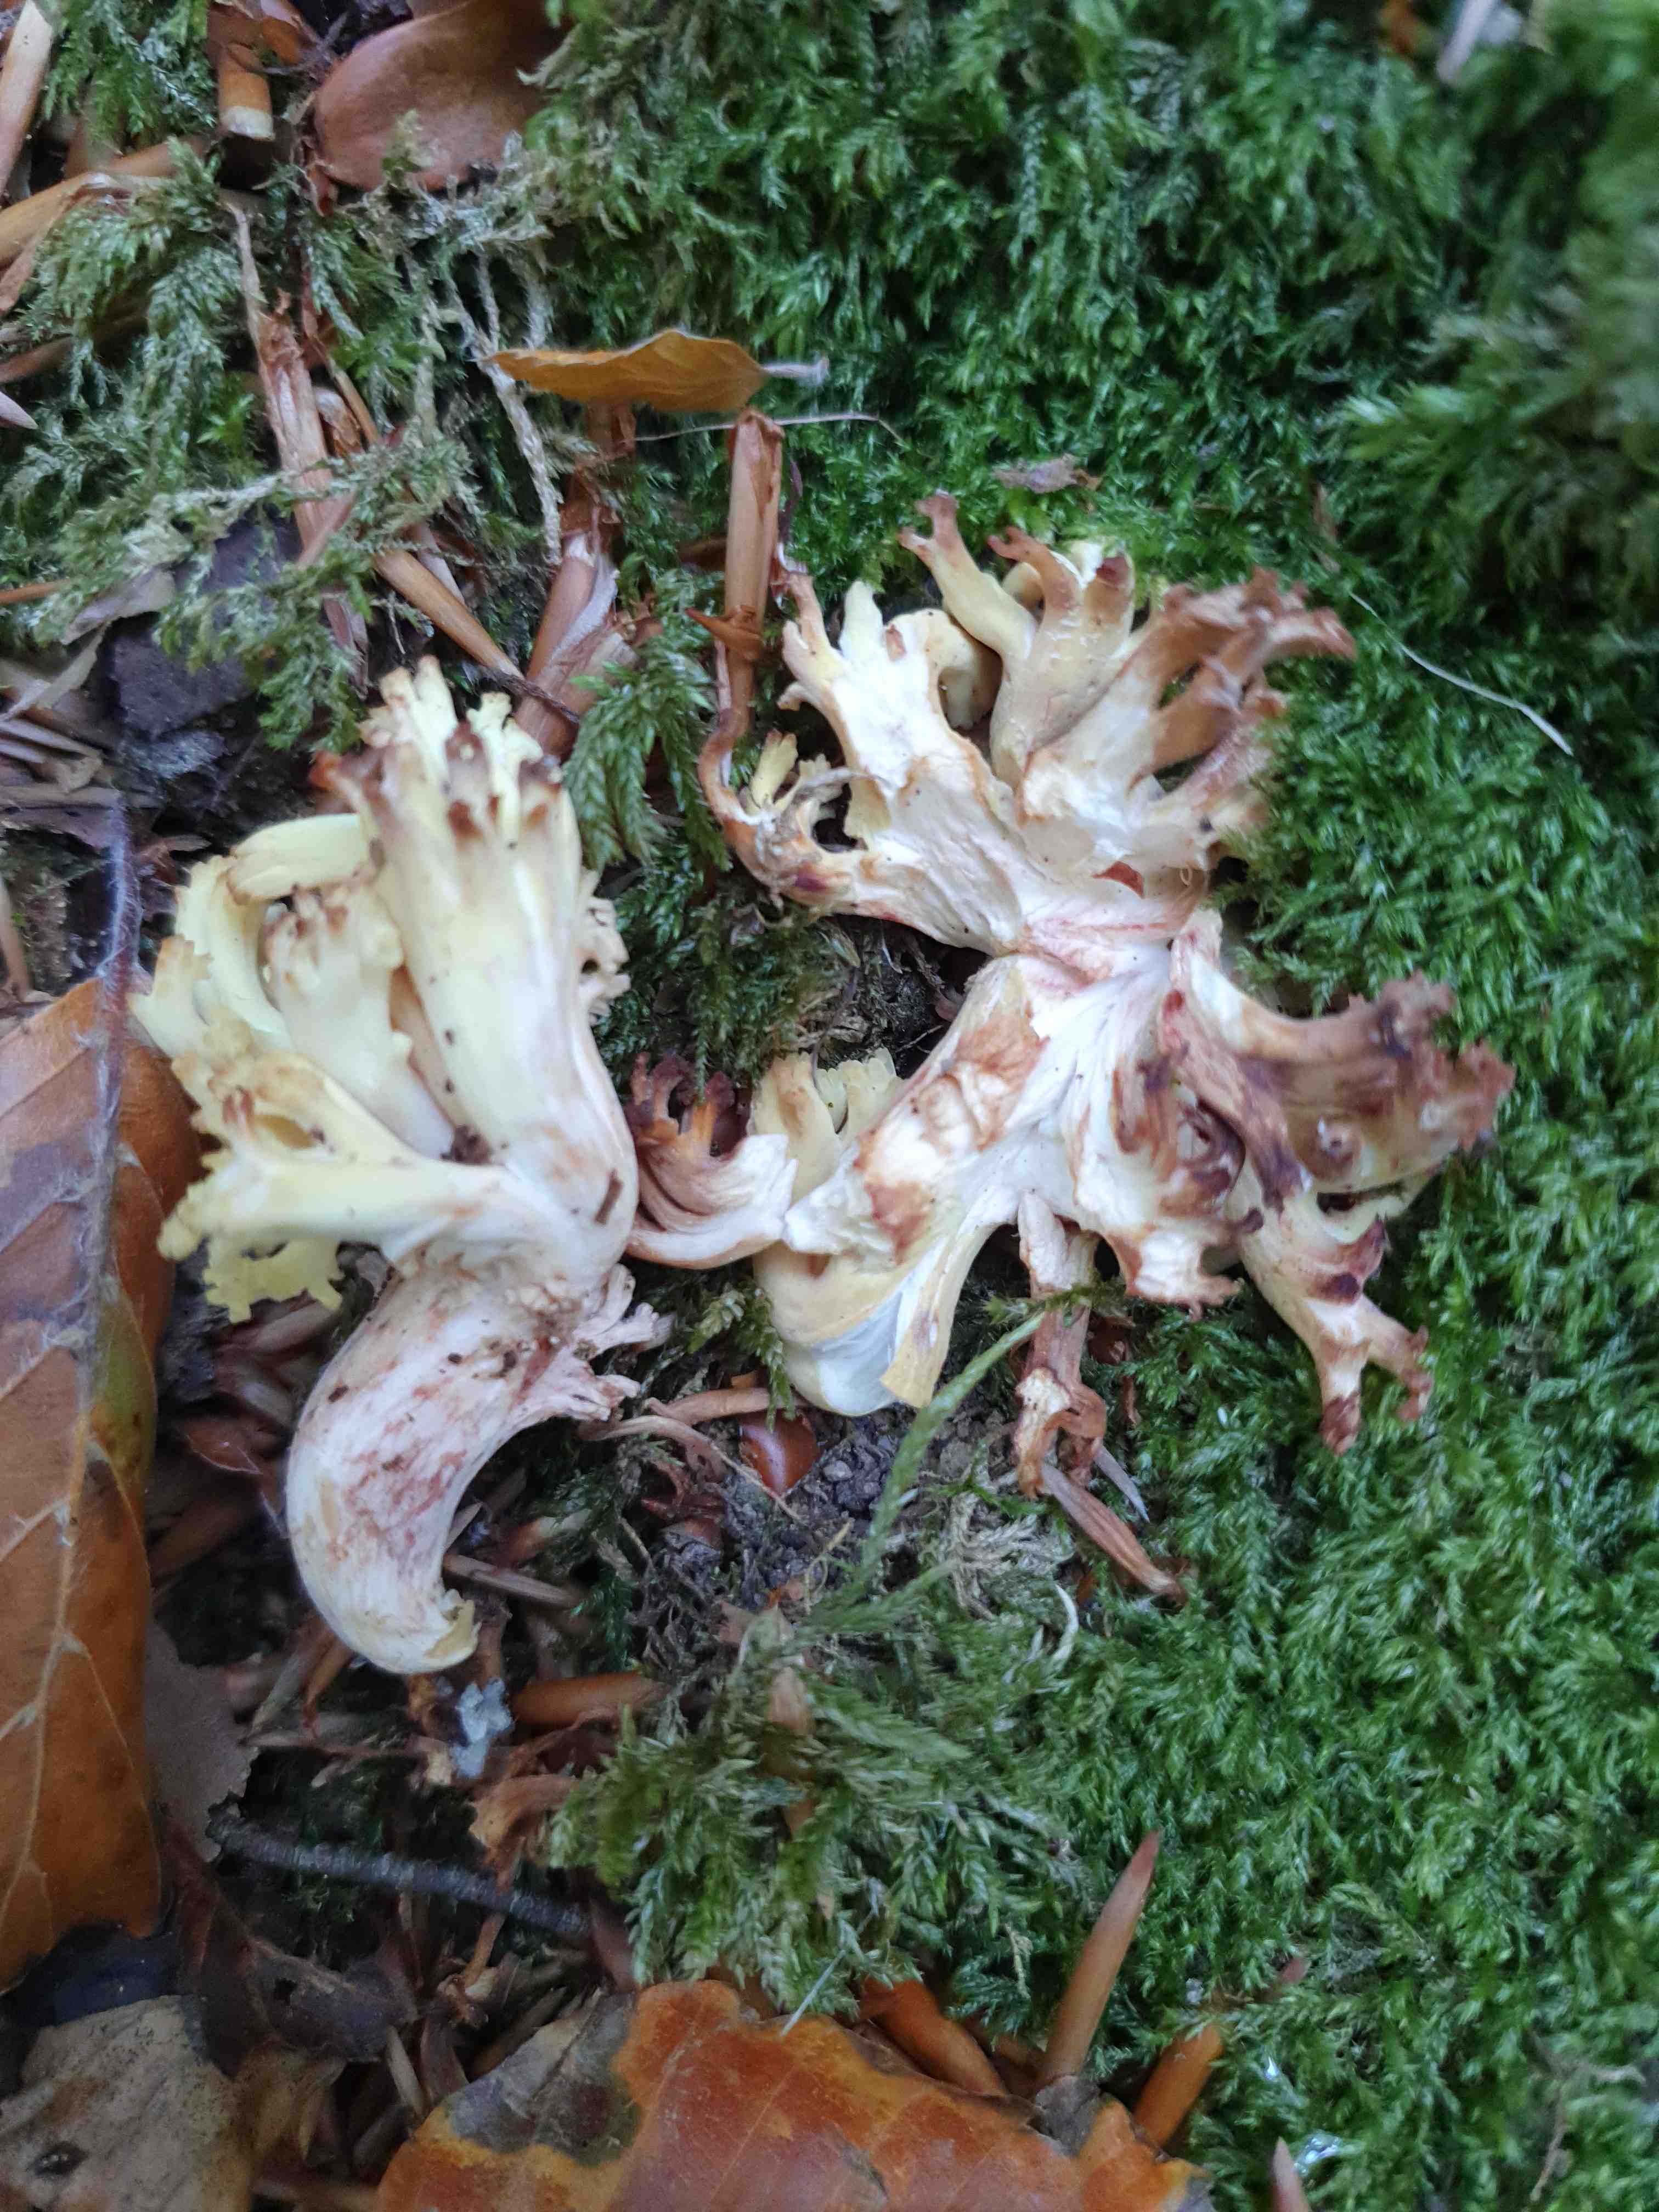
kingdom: Fungi
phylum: Basidiomycota
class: Agaricomycetes
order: Gomphales
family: Gomphaceae
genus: Ramaria
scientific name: Ramaria sanguinea
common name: blodplettet koralsvamp
